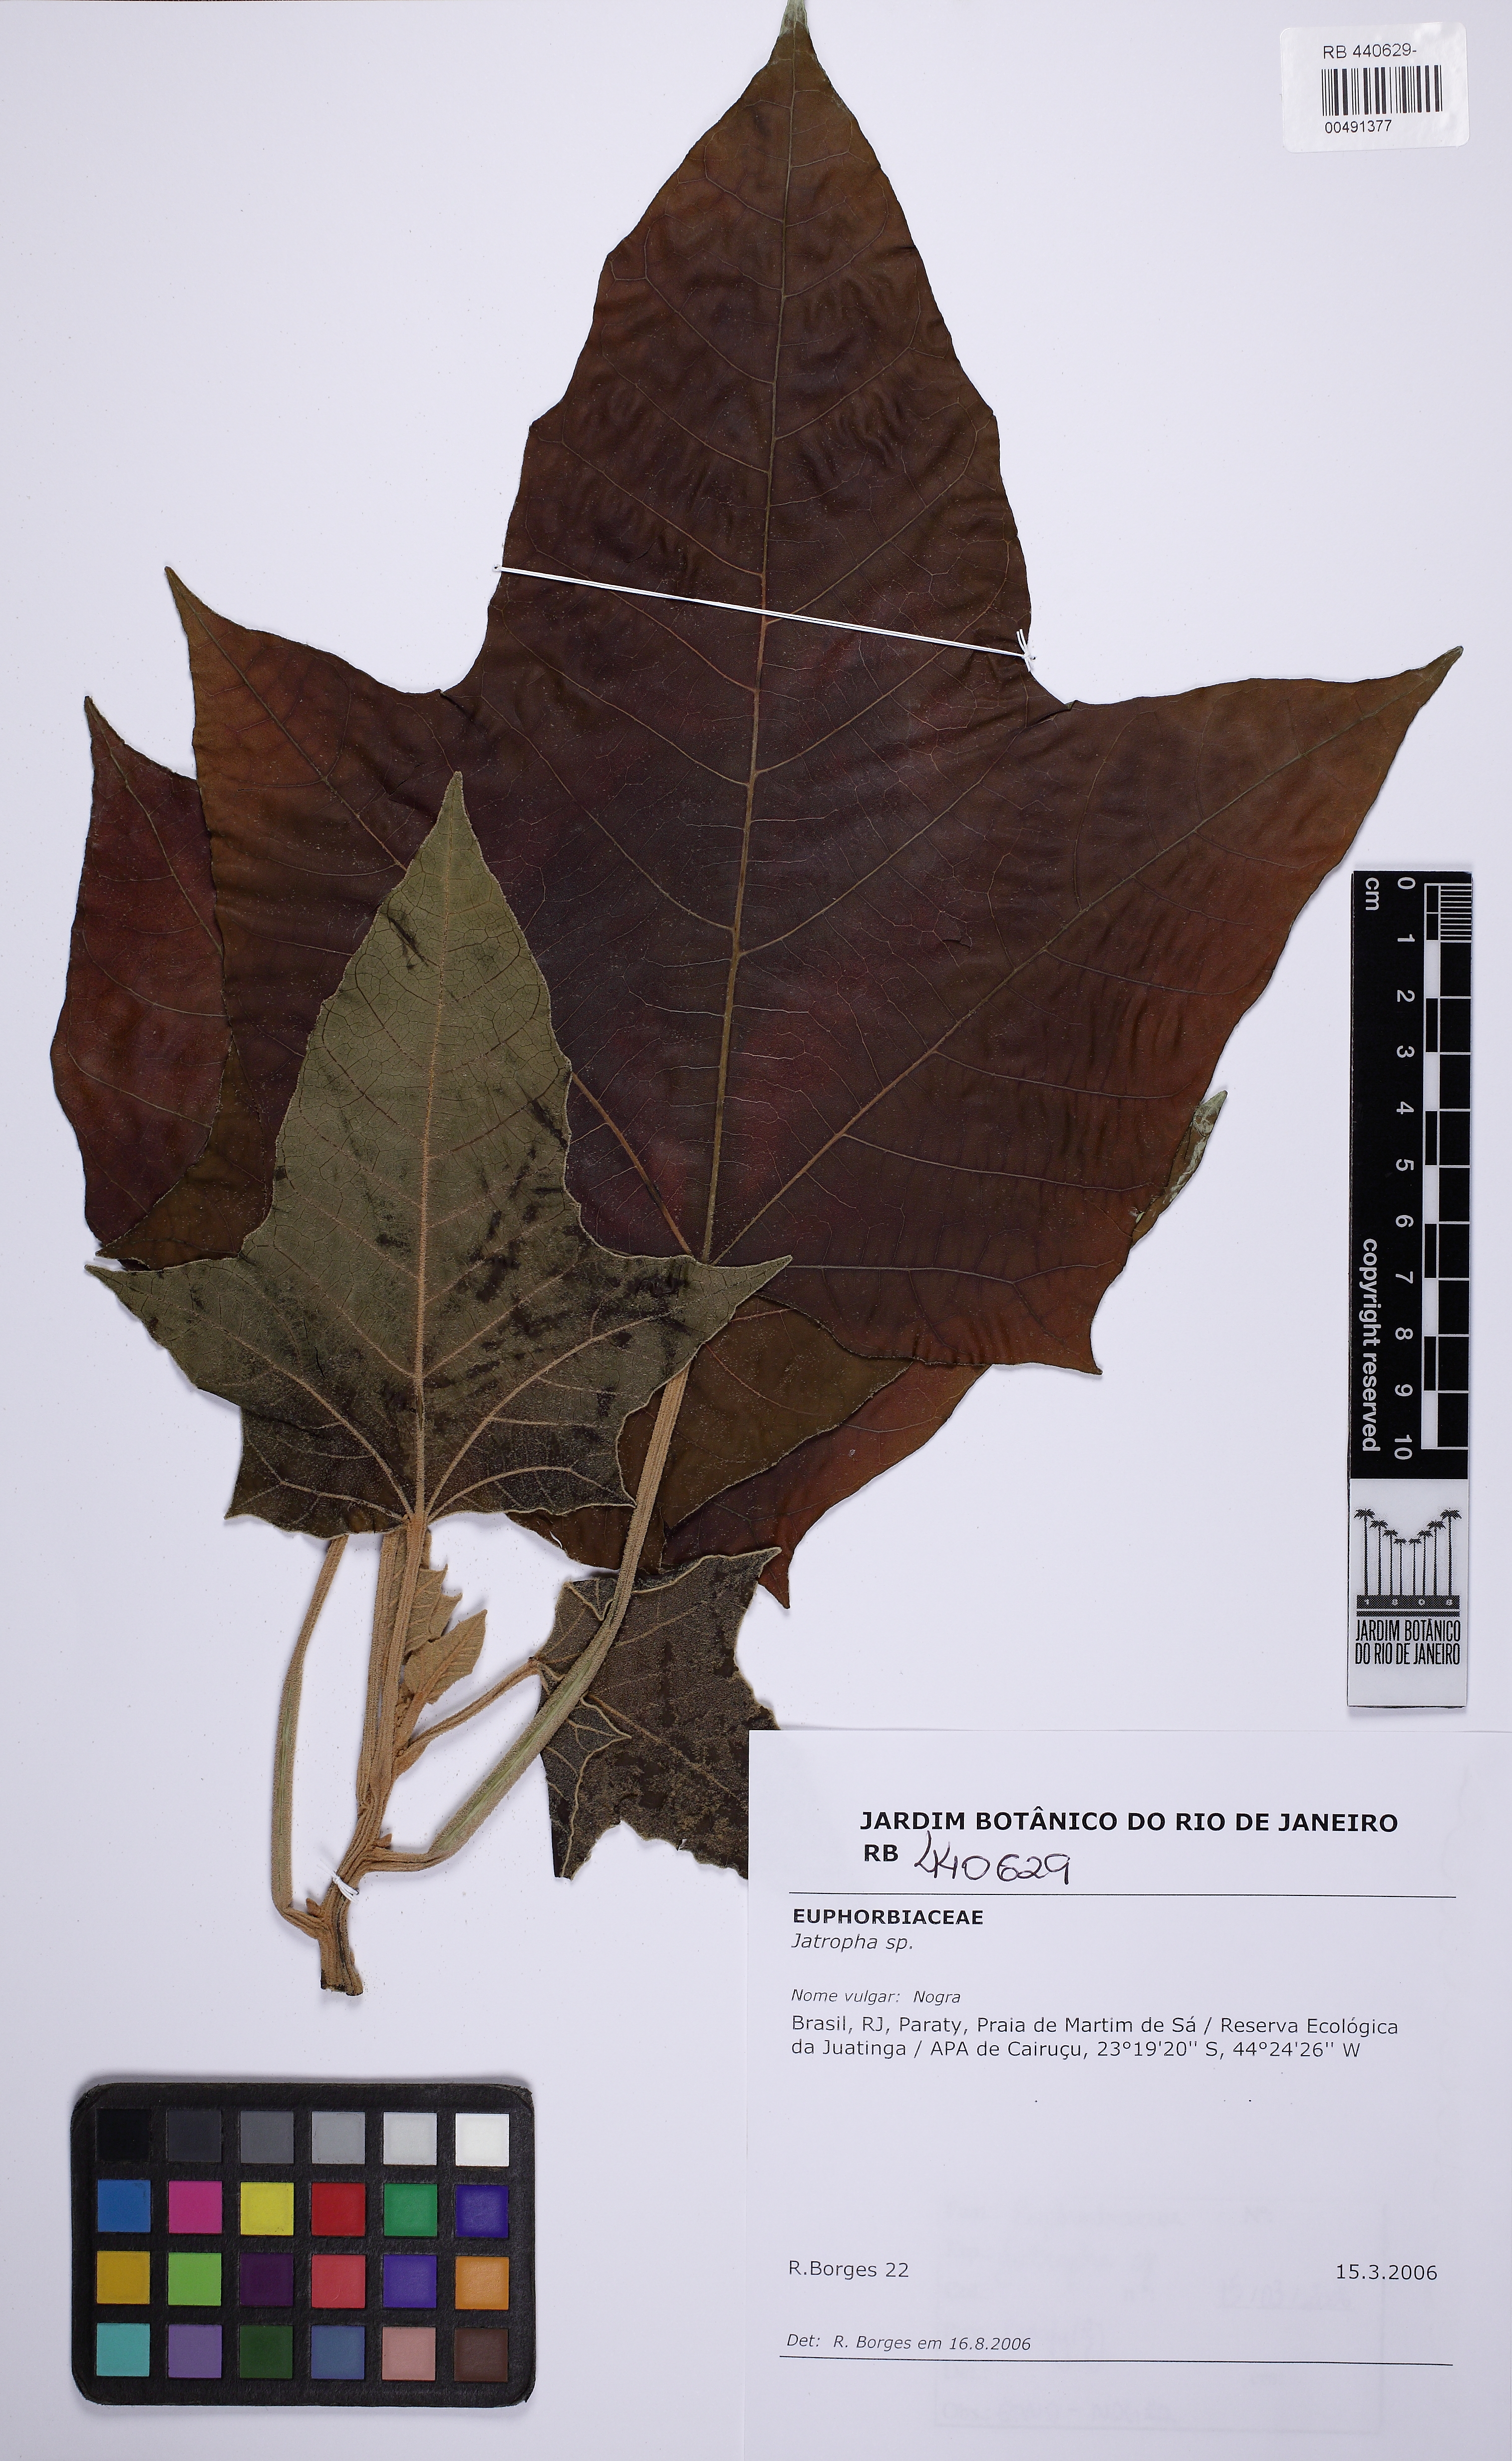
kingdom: Plantae
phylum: Tracheophyta
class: Magnoliopsida
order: Malpighiales
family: Euphorbiaceae
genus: Jatropha
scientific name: Jatropha
